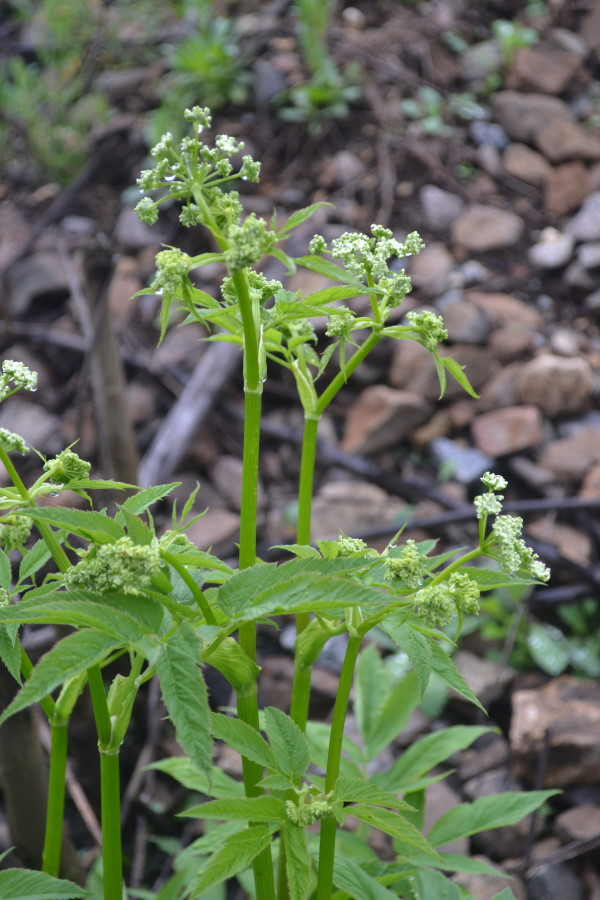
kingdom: Plantae
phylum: Tracheophyta
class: Magnoliopsida
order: Apiales
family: Apiaceae
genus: Aegopodium
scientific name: Aegopodium podagraria
